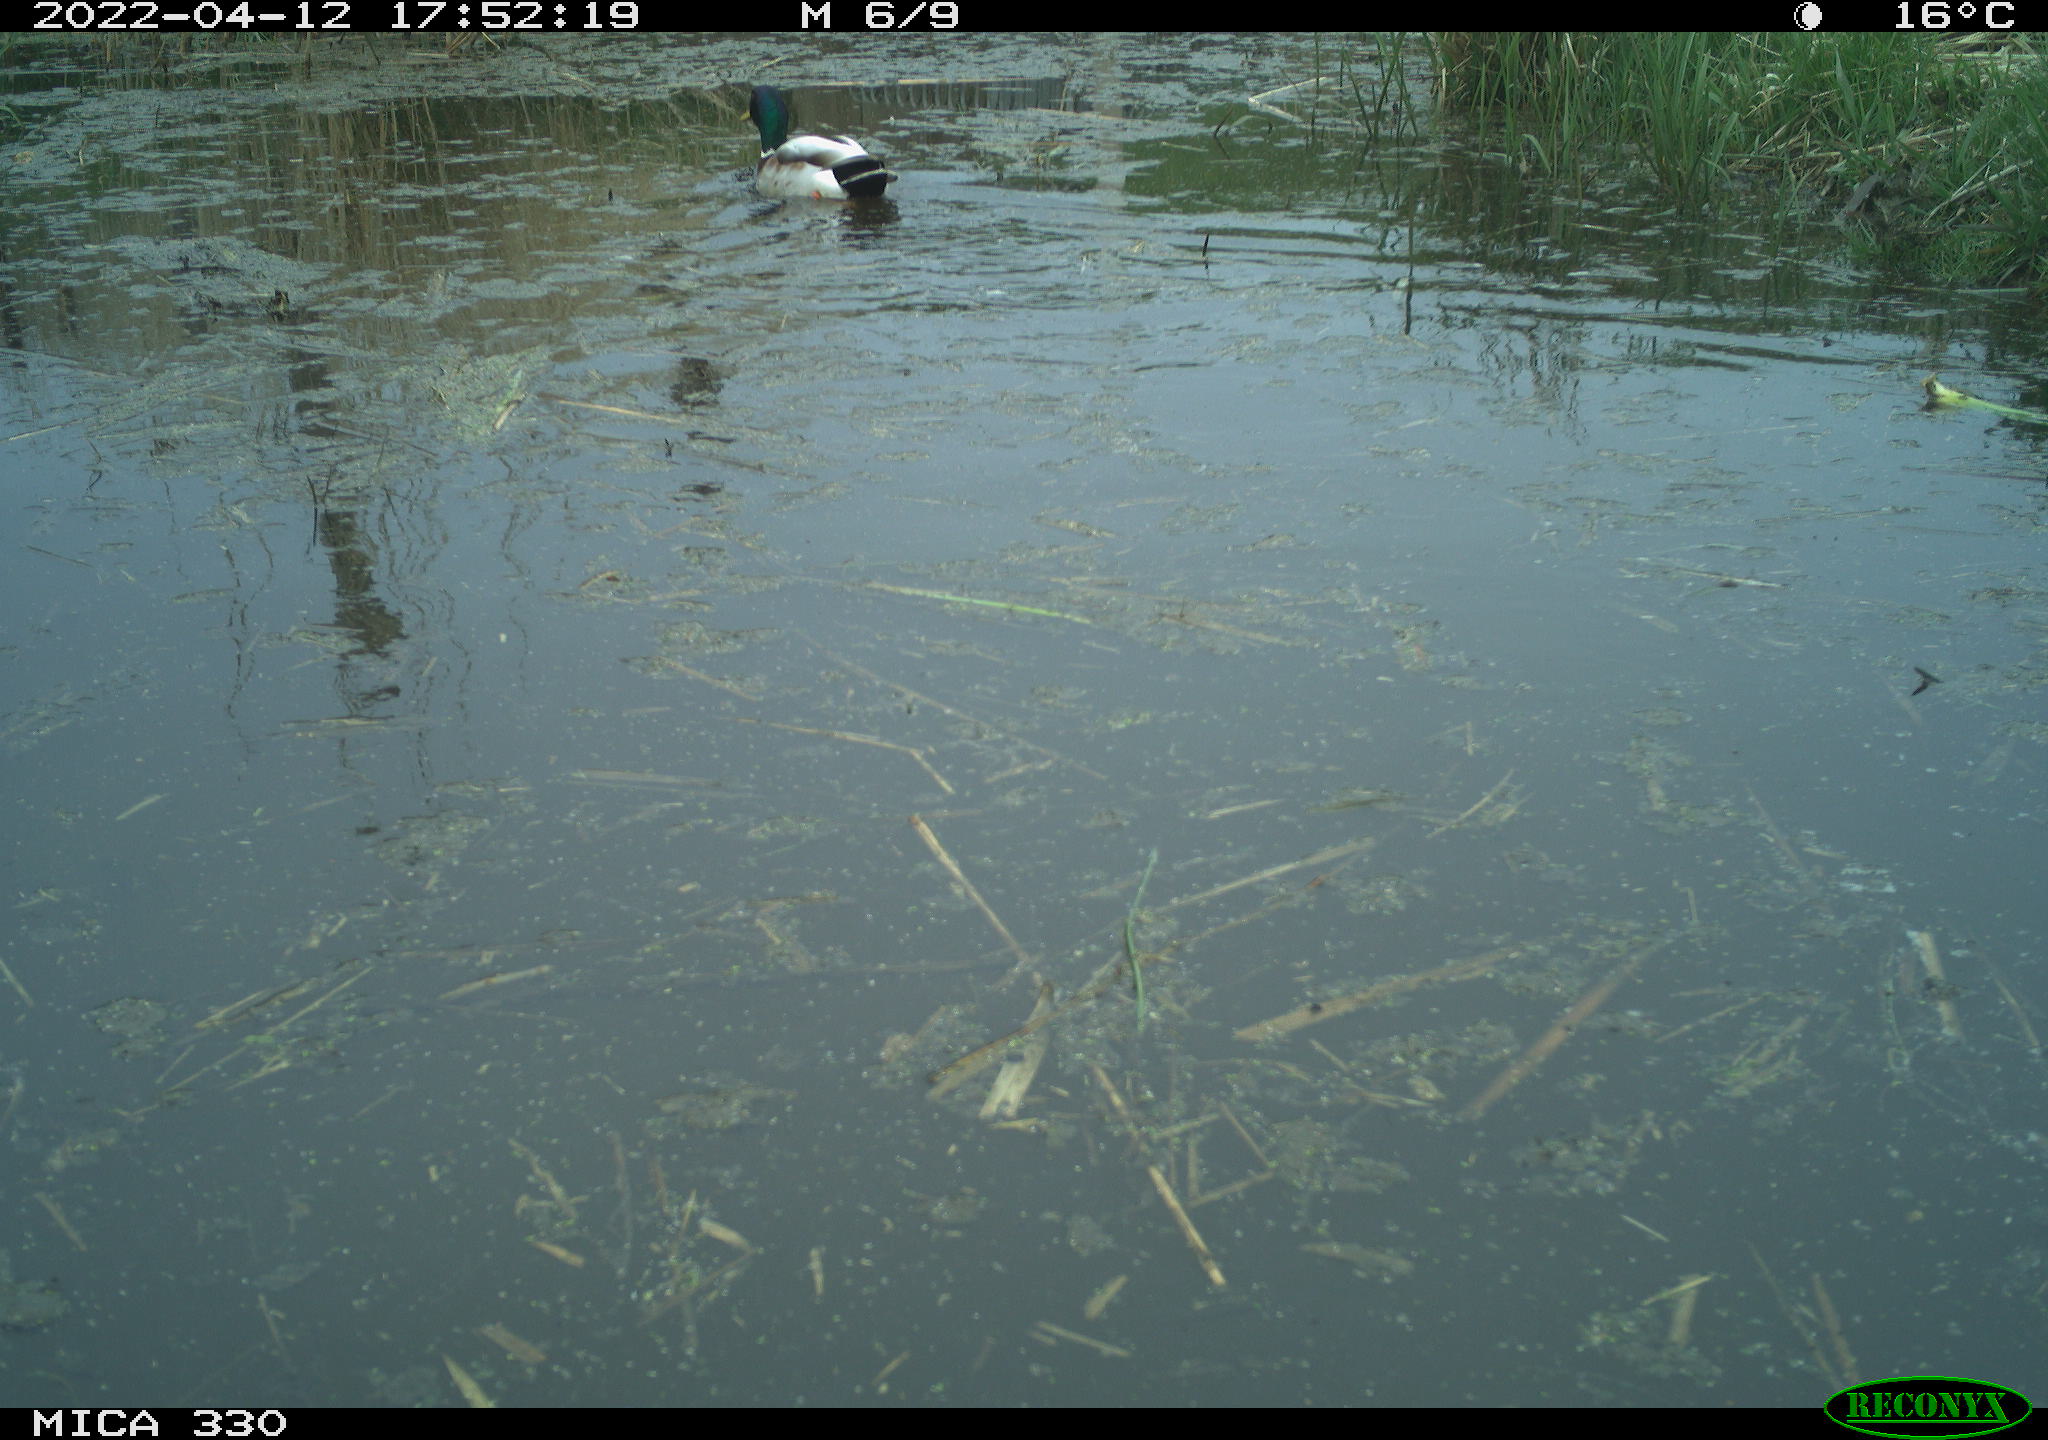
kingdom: Animalia
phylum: Chordata
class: Aves
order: Anseriformes
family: Anatidae
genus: Anas
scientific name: Anas platyrhynchos
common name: Mallard
